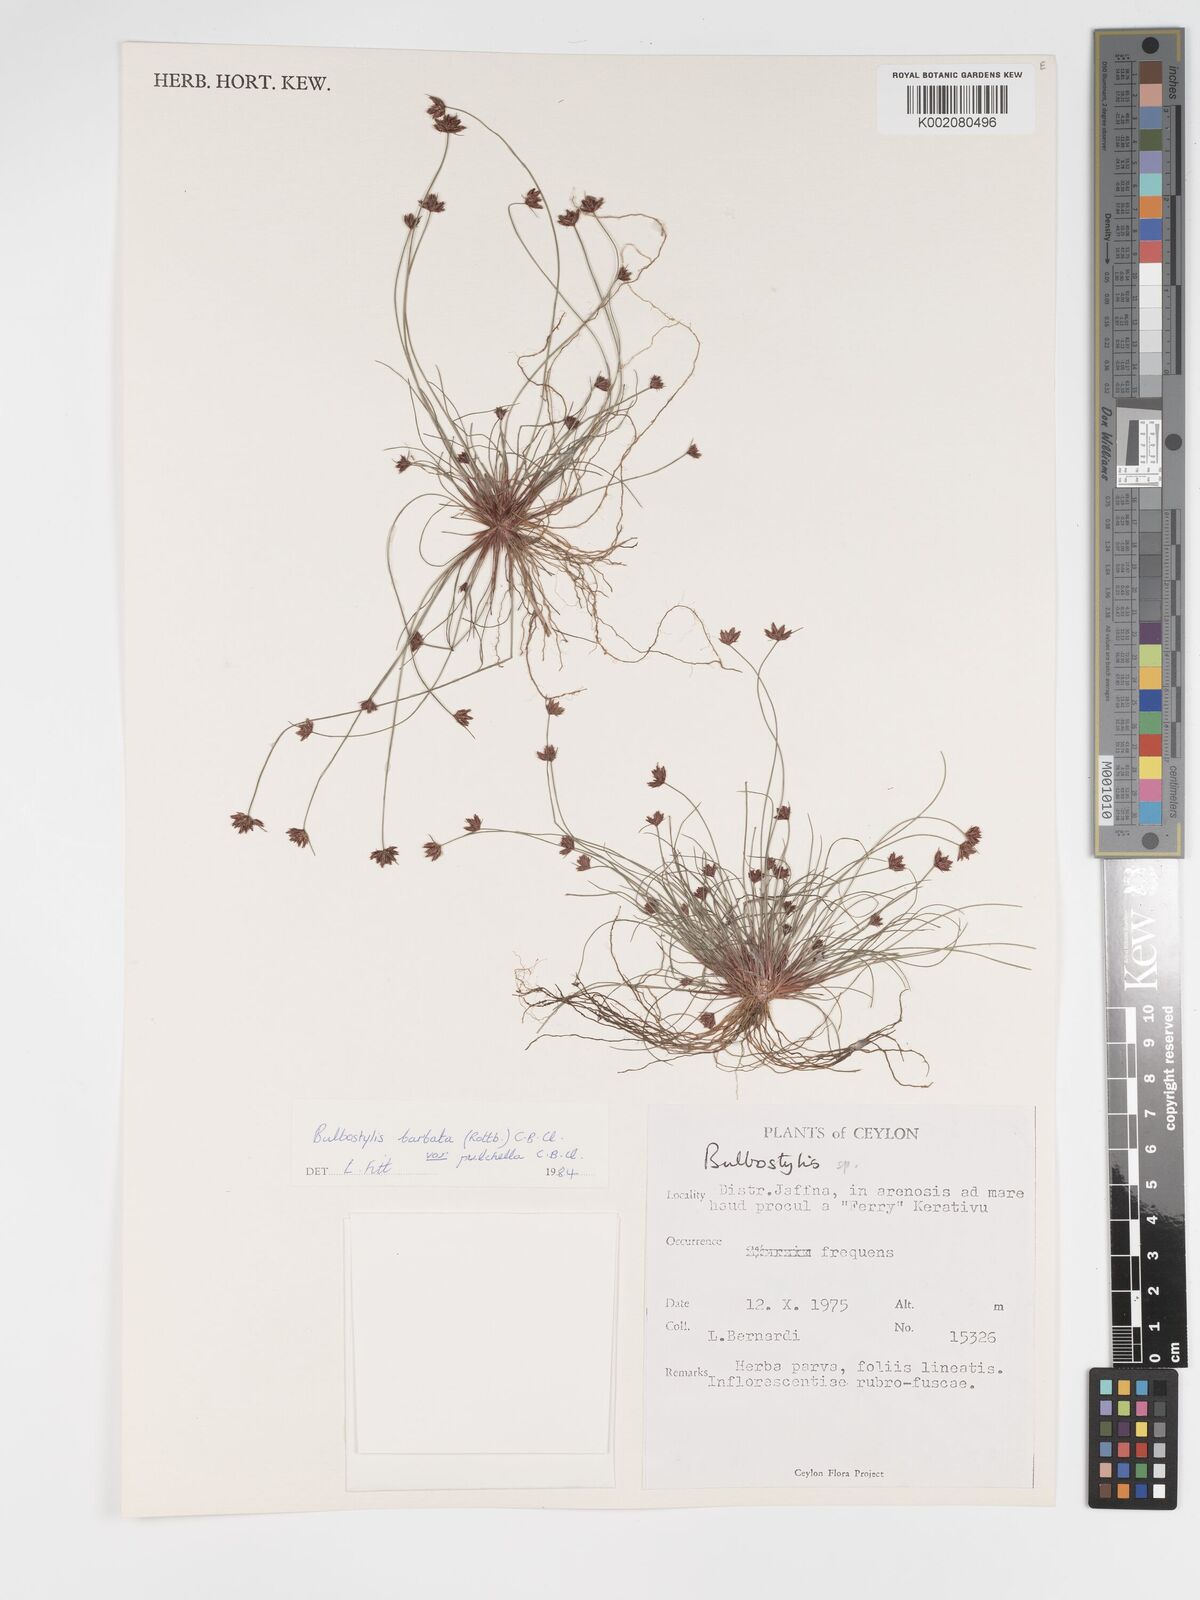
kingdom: Plantae
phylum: Tracheophyta
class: Liliopsida
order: Poales
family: Cyperaceae
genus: Bulbostylis
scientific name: Bulbostylis barbata
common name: Watergrass
